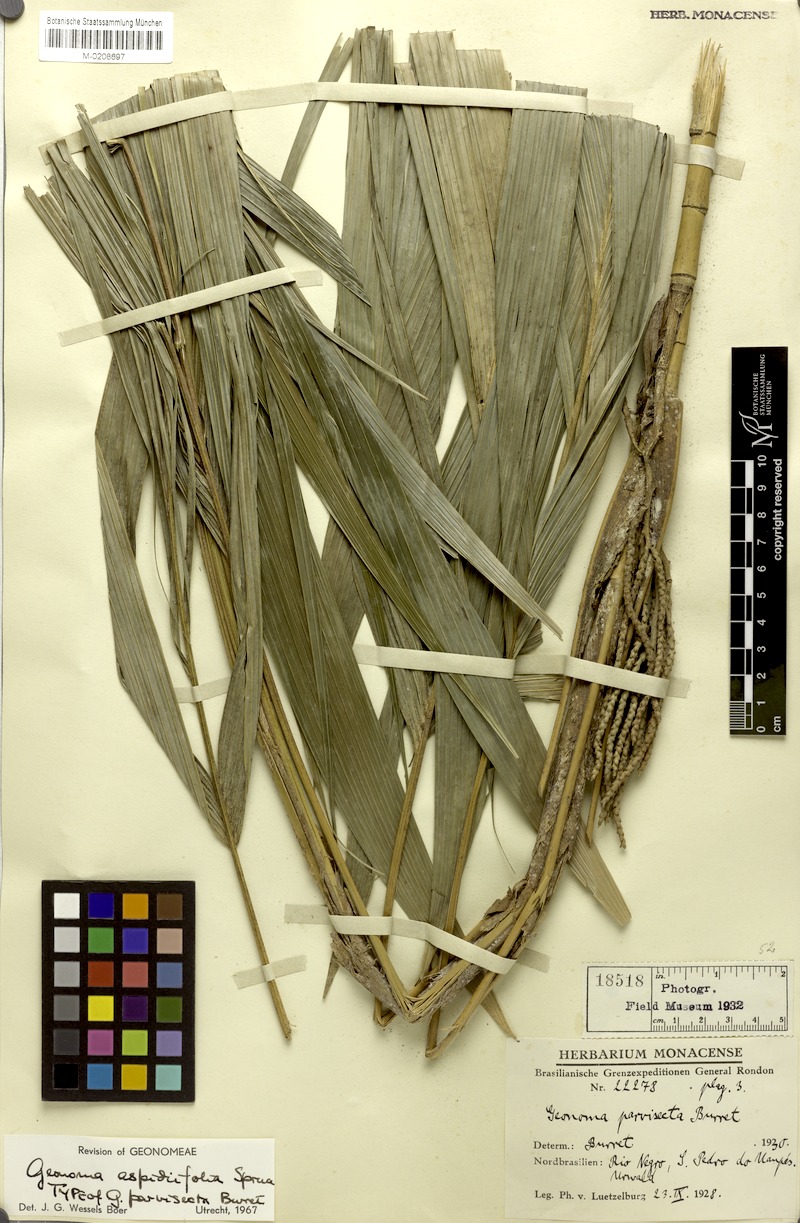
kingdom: Plantae
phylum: Tracheophyta
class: Liliopsida
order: Arecales
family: Arecaceae
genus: Geonoma
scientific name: Geonoma maxima
